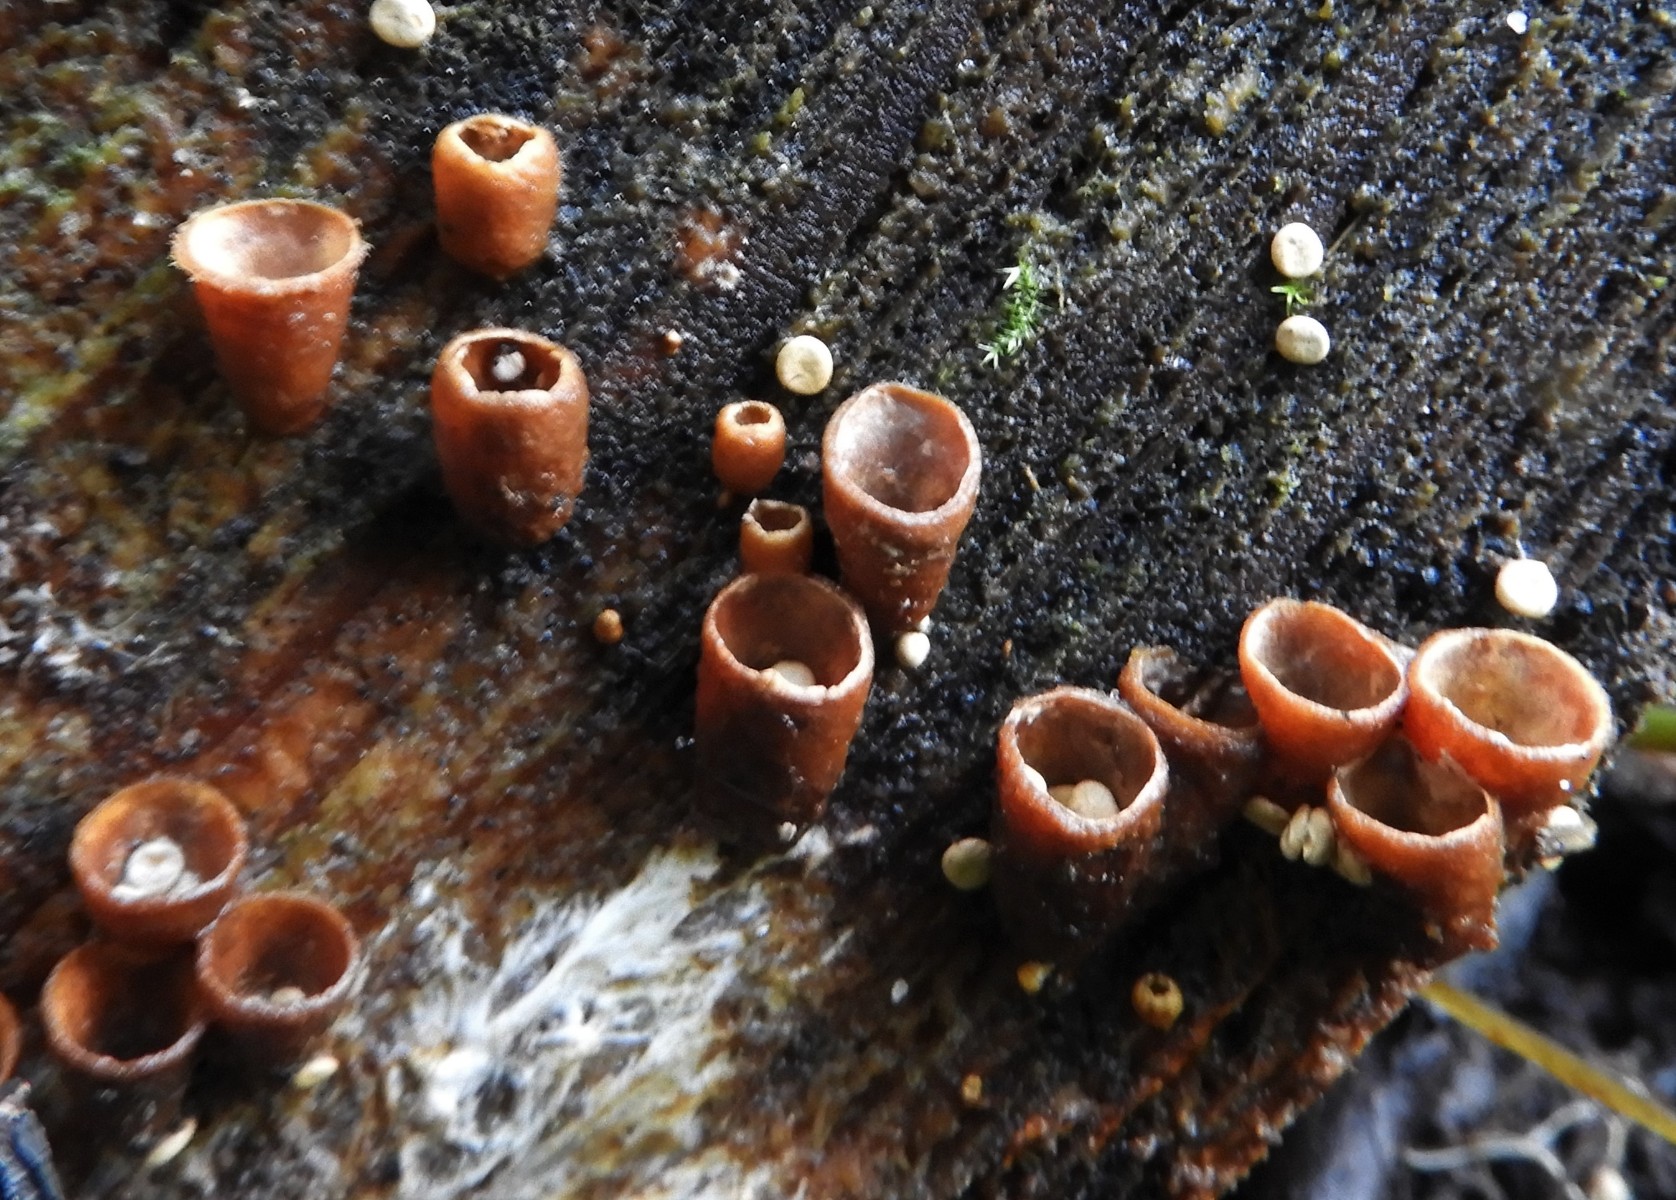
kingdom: Fungi
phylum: Basidiomycota
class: Agaricomycetes
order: Agaricales
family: Nidulariaceae
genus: Crucibulum
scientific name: Crucibulum crucibuliforme
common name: krukkesvamp
